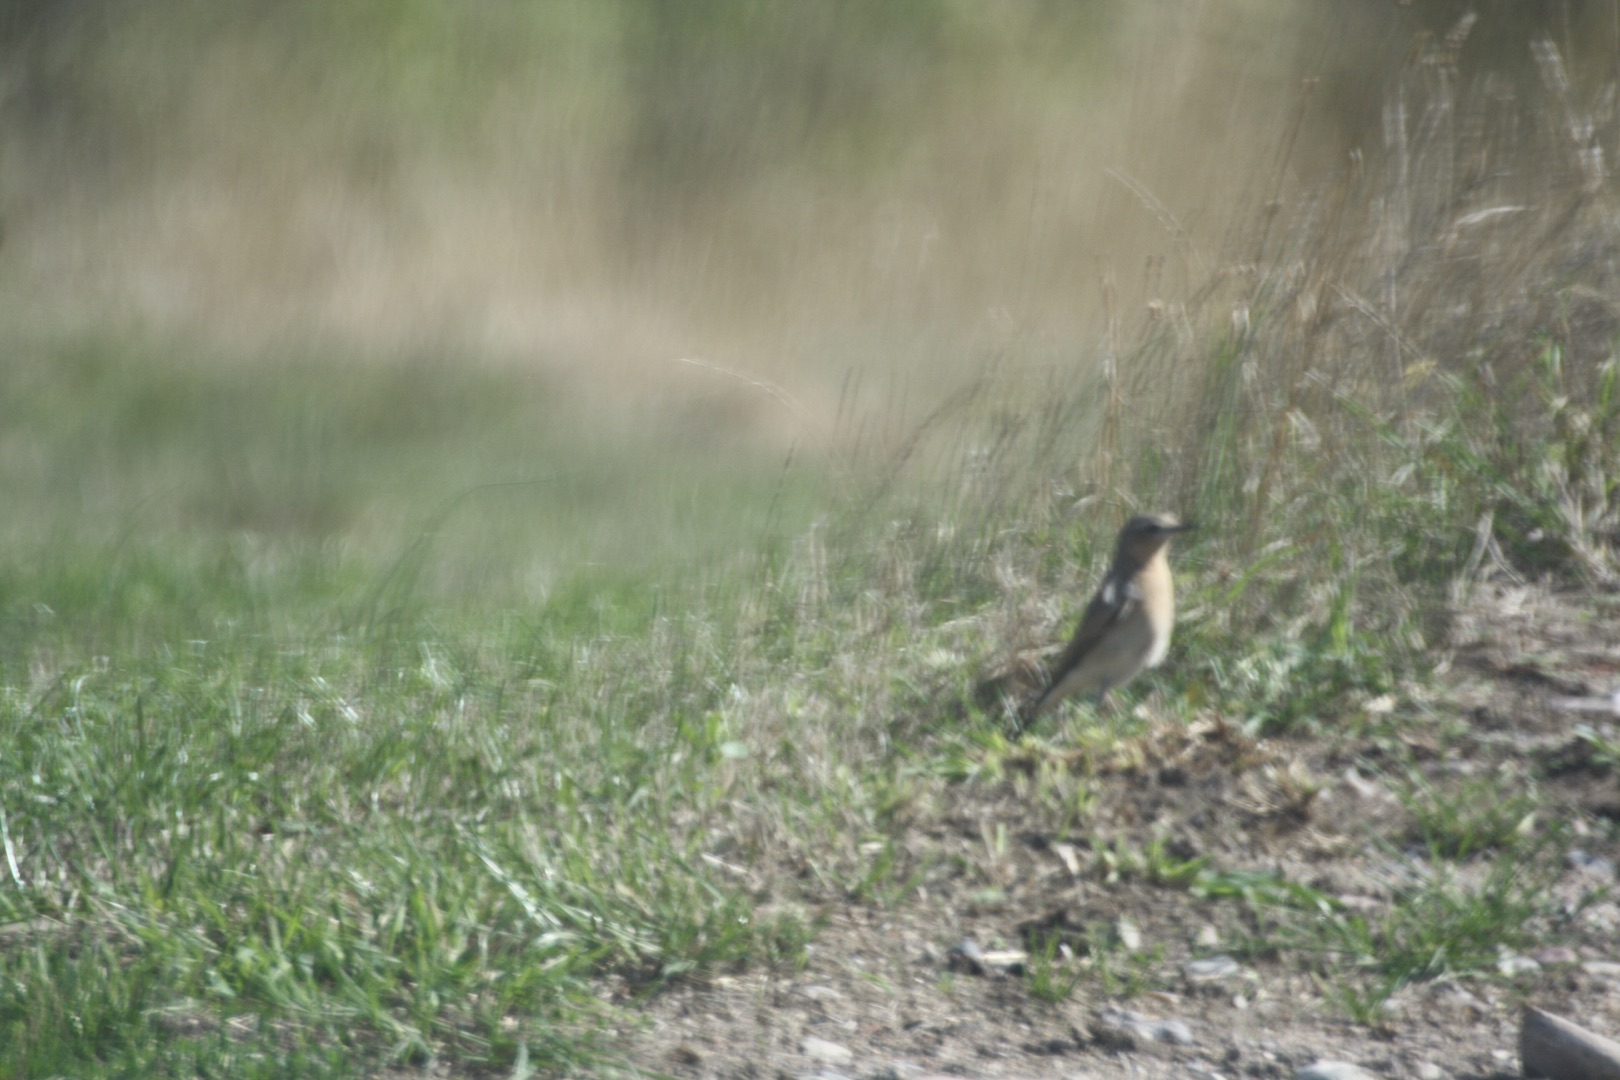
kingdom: Animalia
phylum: Chordata
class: Aves
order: Passeriformes
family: Muscicapidae
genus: Oenanthe
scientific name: Oenanthe oenanthe
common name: Stenpikker
